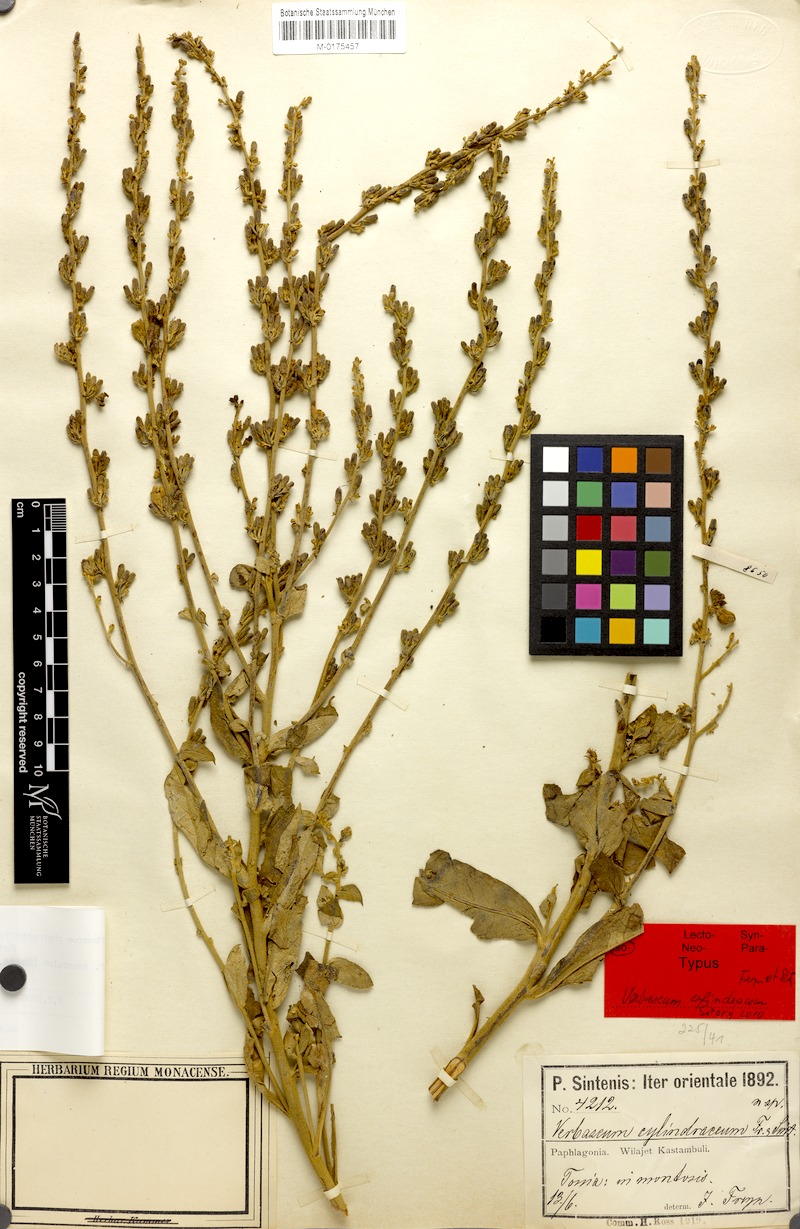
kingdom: Plantae
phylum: Tracheophyta
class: Magnoliopsida
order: Lamiales
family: Scrophulariaceae
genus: Verbascum
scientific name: Verbascum cheiranthifollum
